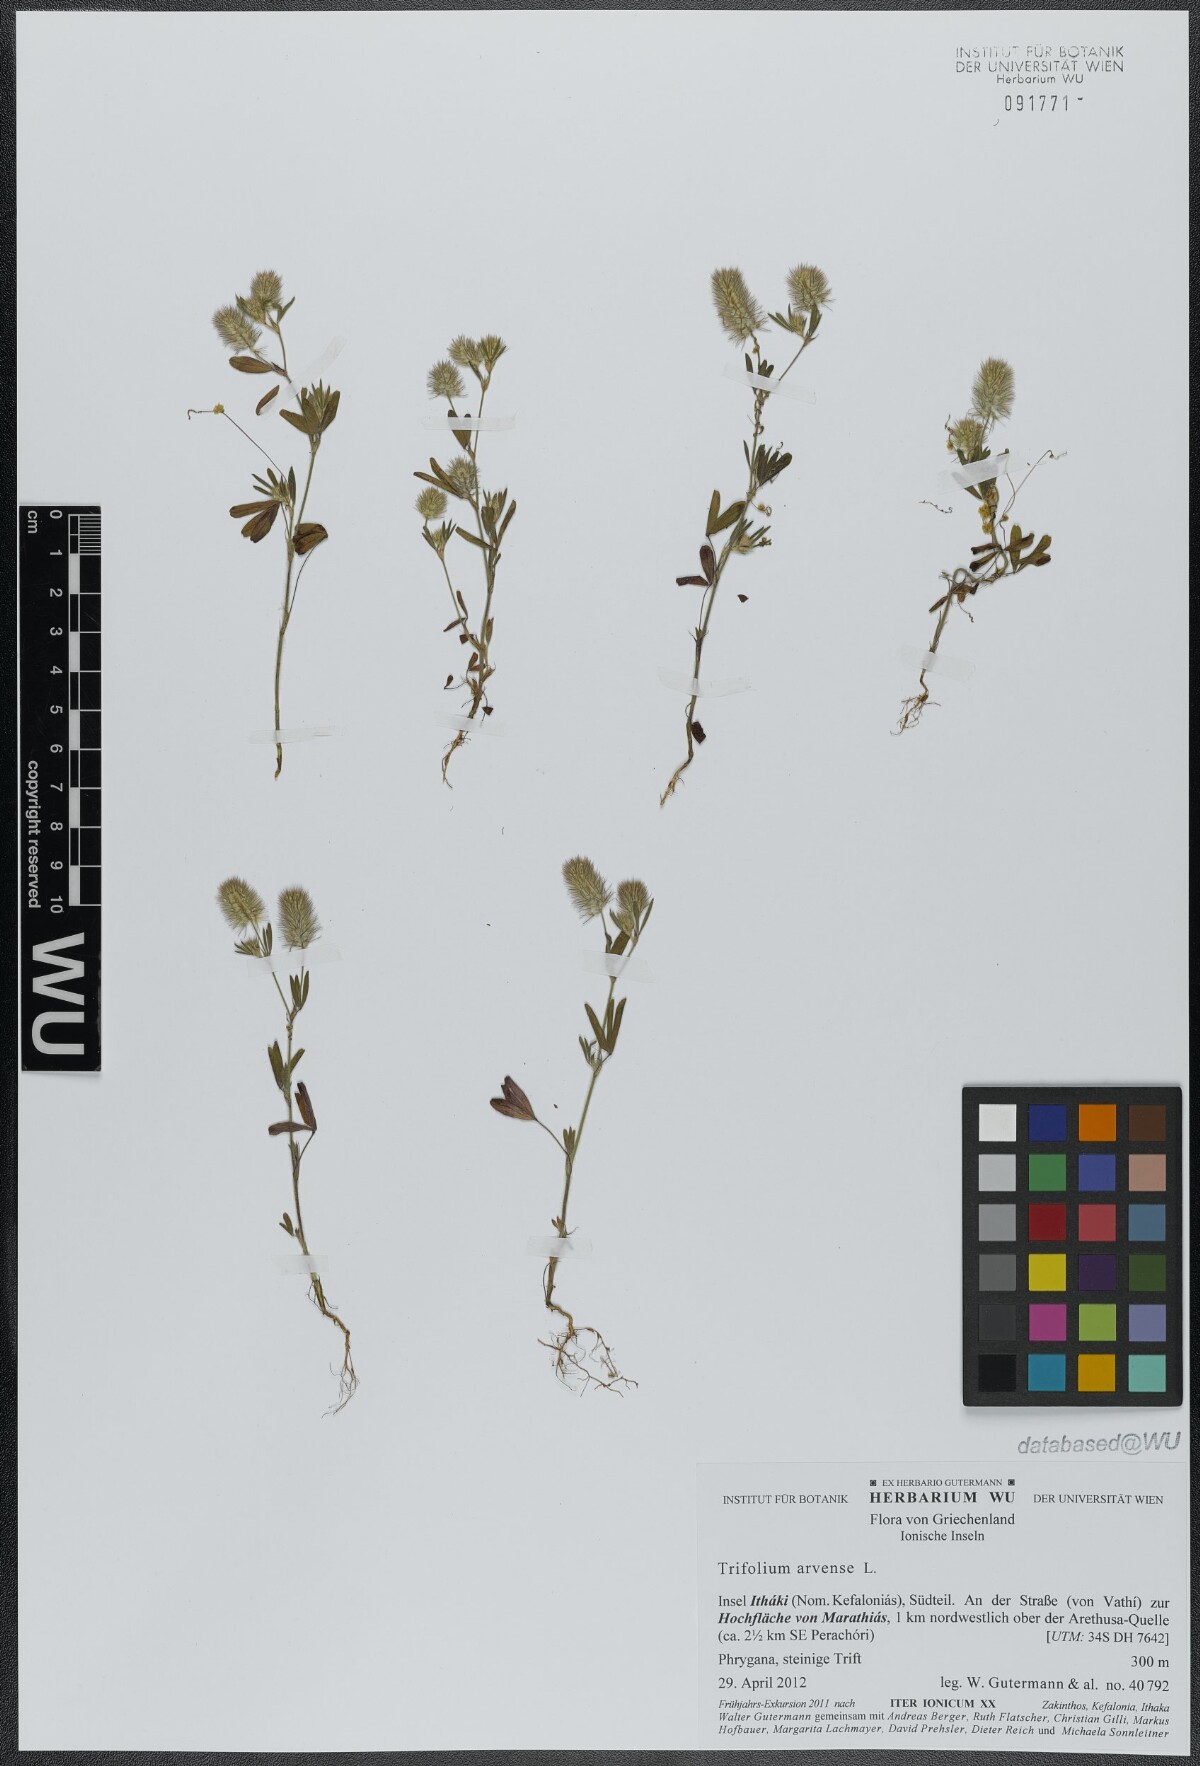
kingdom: Plantae
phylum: Tracheophyta
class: Magnoliopsida
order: Fabales
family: Fabaceae
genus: Trifolium
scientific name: Trifolium arvense
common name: Hare's-foot clover
